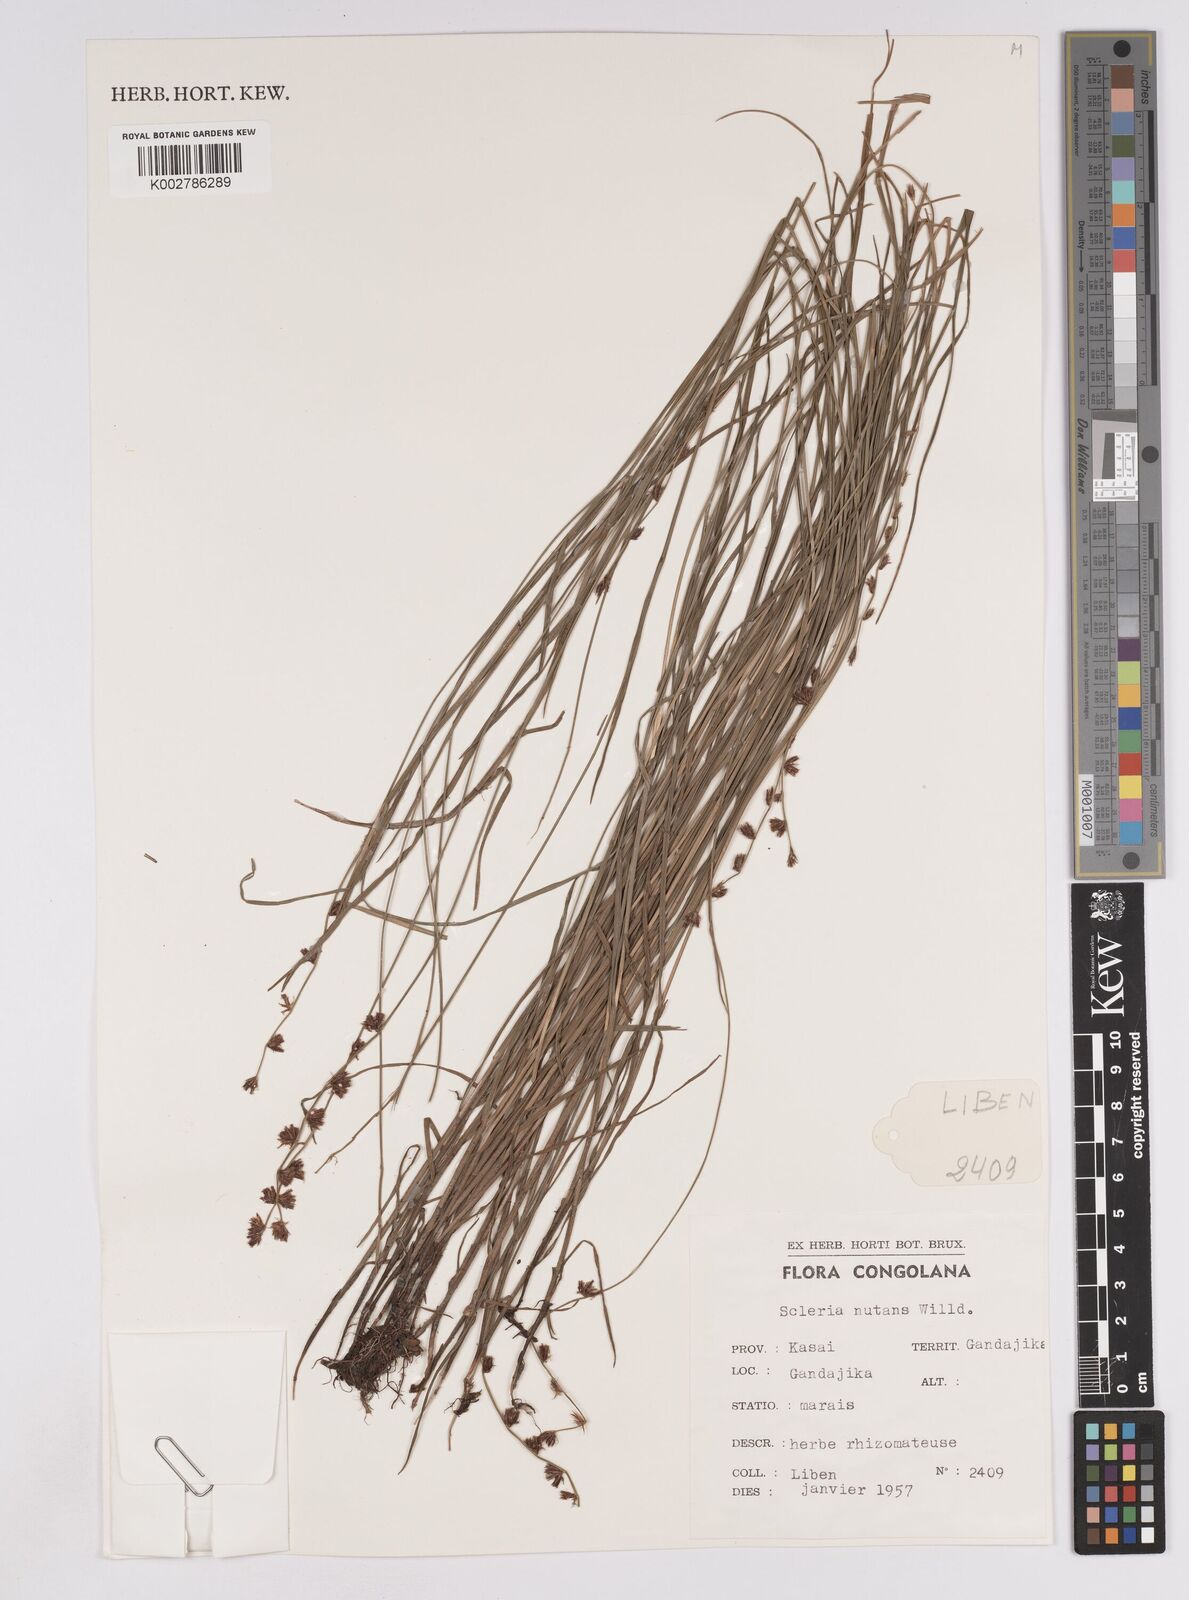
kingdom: Plantae
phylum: Tracheophyta
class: Liliopsida
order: Poales
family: Cyperaceae
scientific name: Cyperaceae
